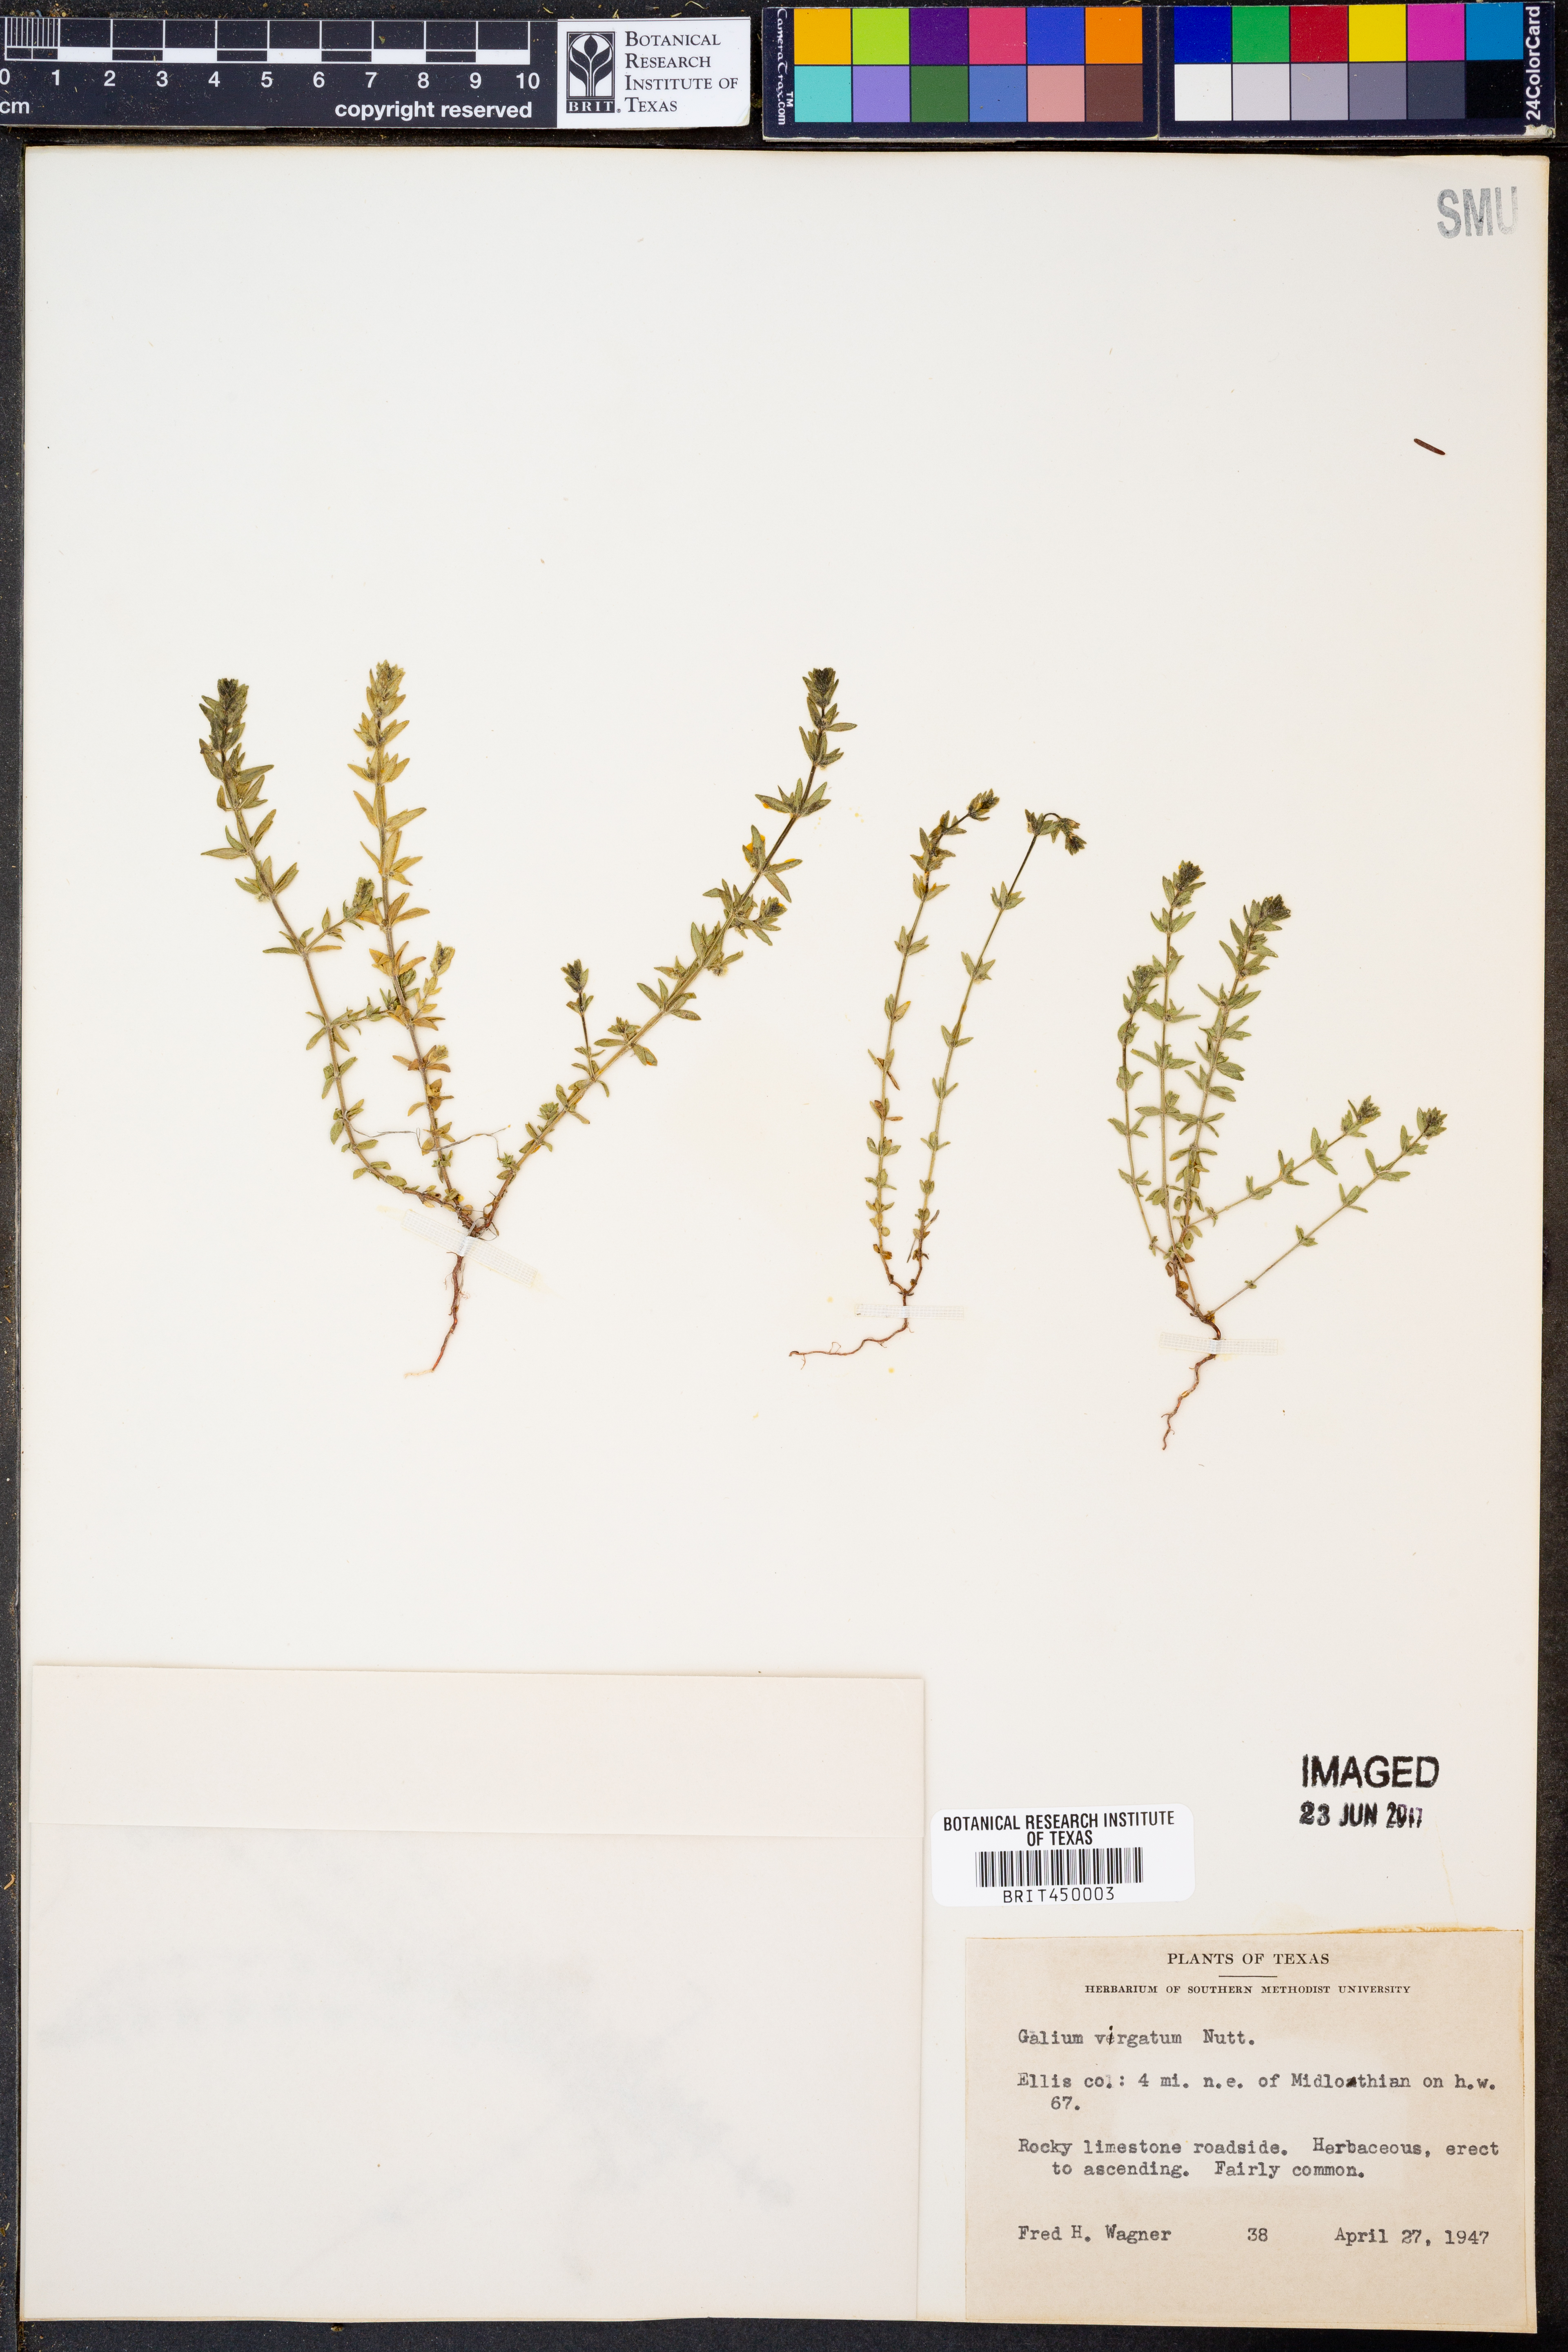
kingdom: Plantae
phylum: Tracheophyta
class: Magnoliopsida
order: Gentianales
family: Rubiaceae
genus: Galium
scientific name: Galium virgatum
